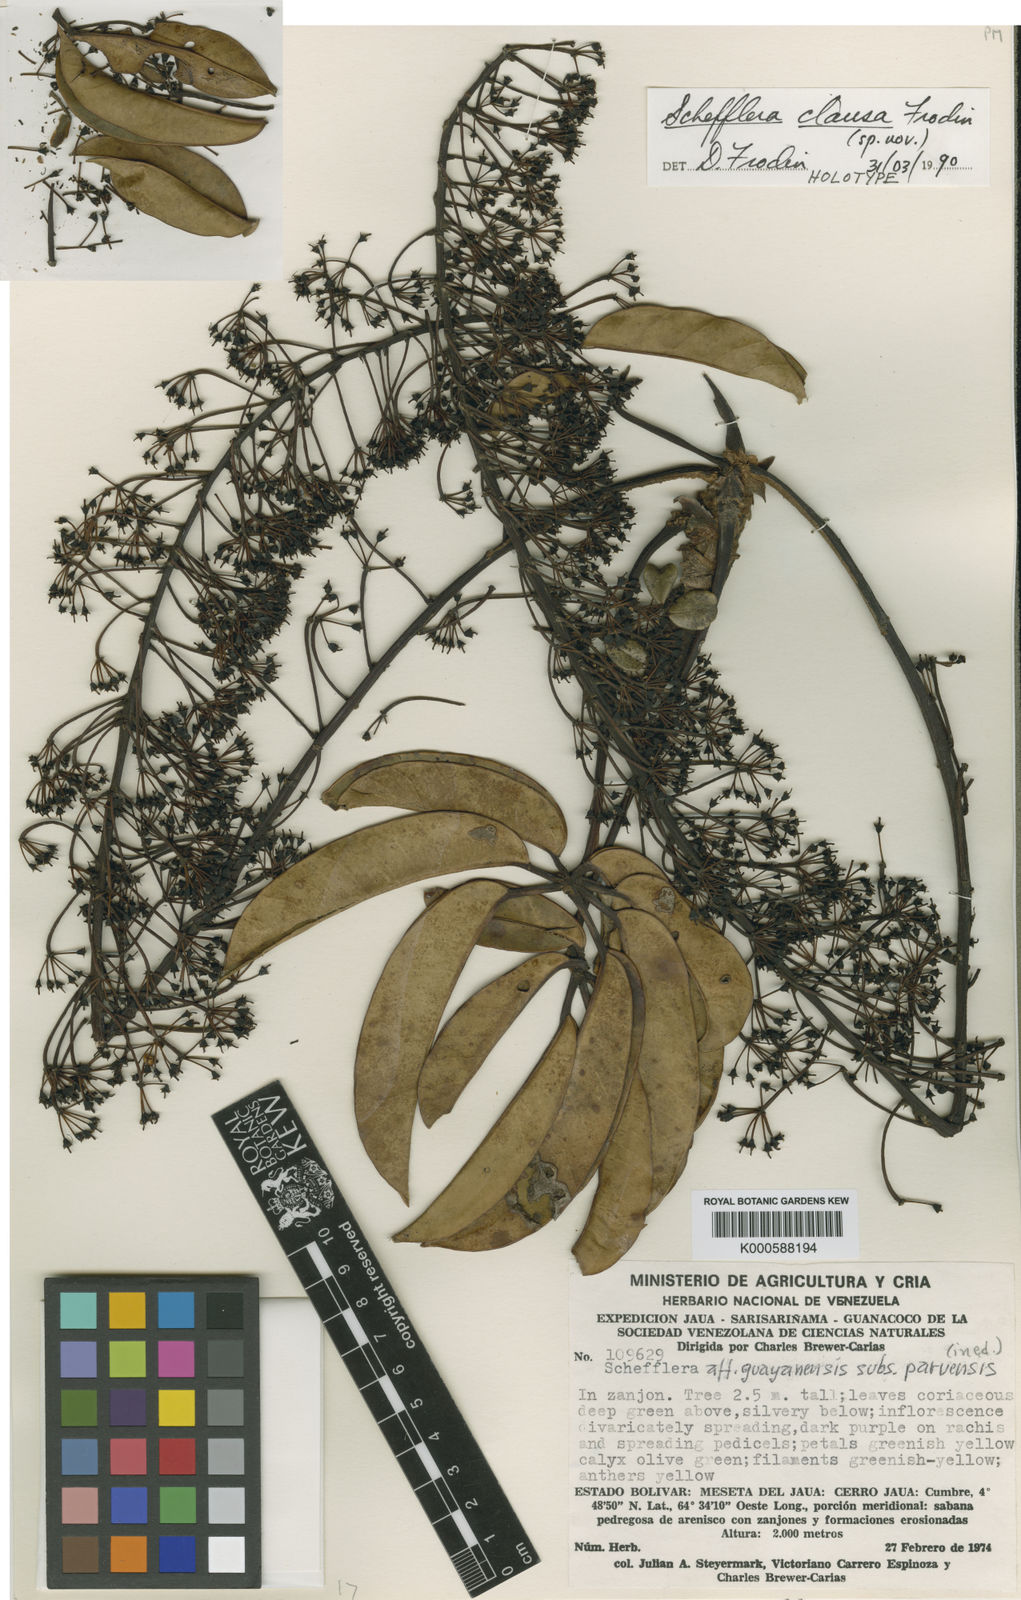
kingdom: Plantae
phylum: Tracheophyta
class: Magnoliopsida
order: Apiales
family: Araliaceae
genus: Sciodaphyllum
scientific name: Sciodaphyllum clausum
